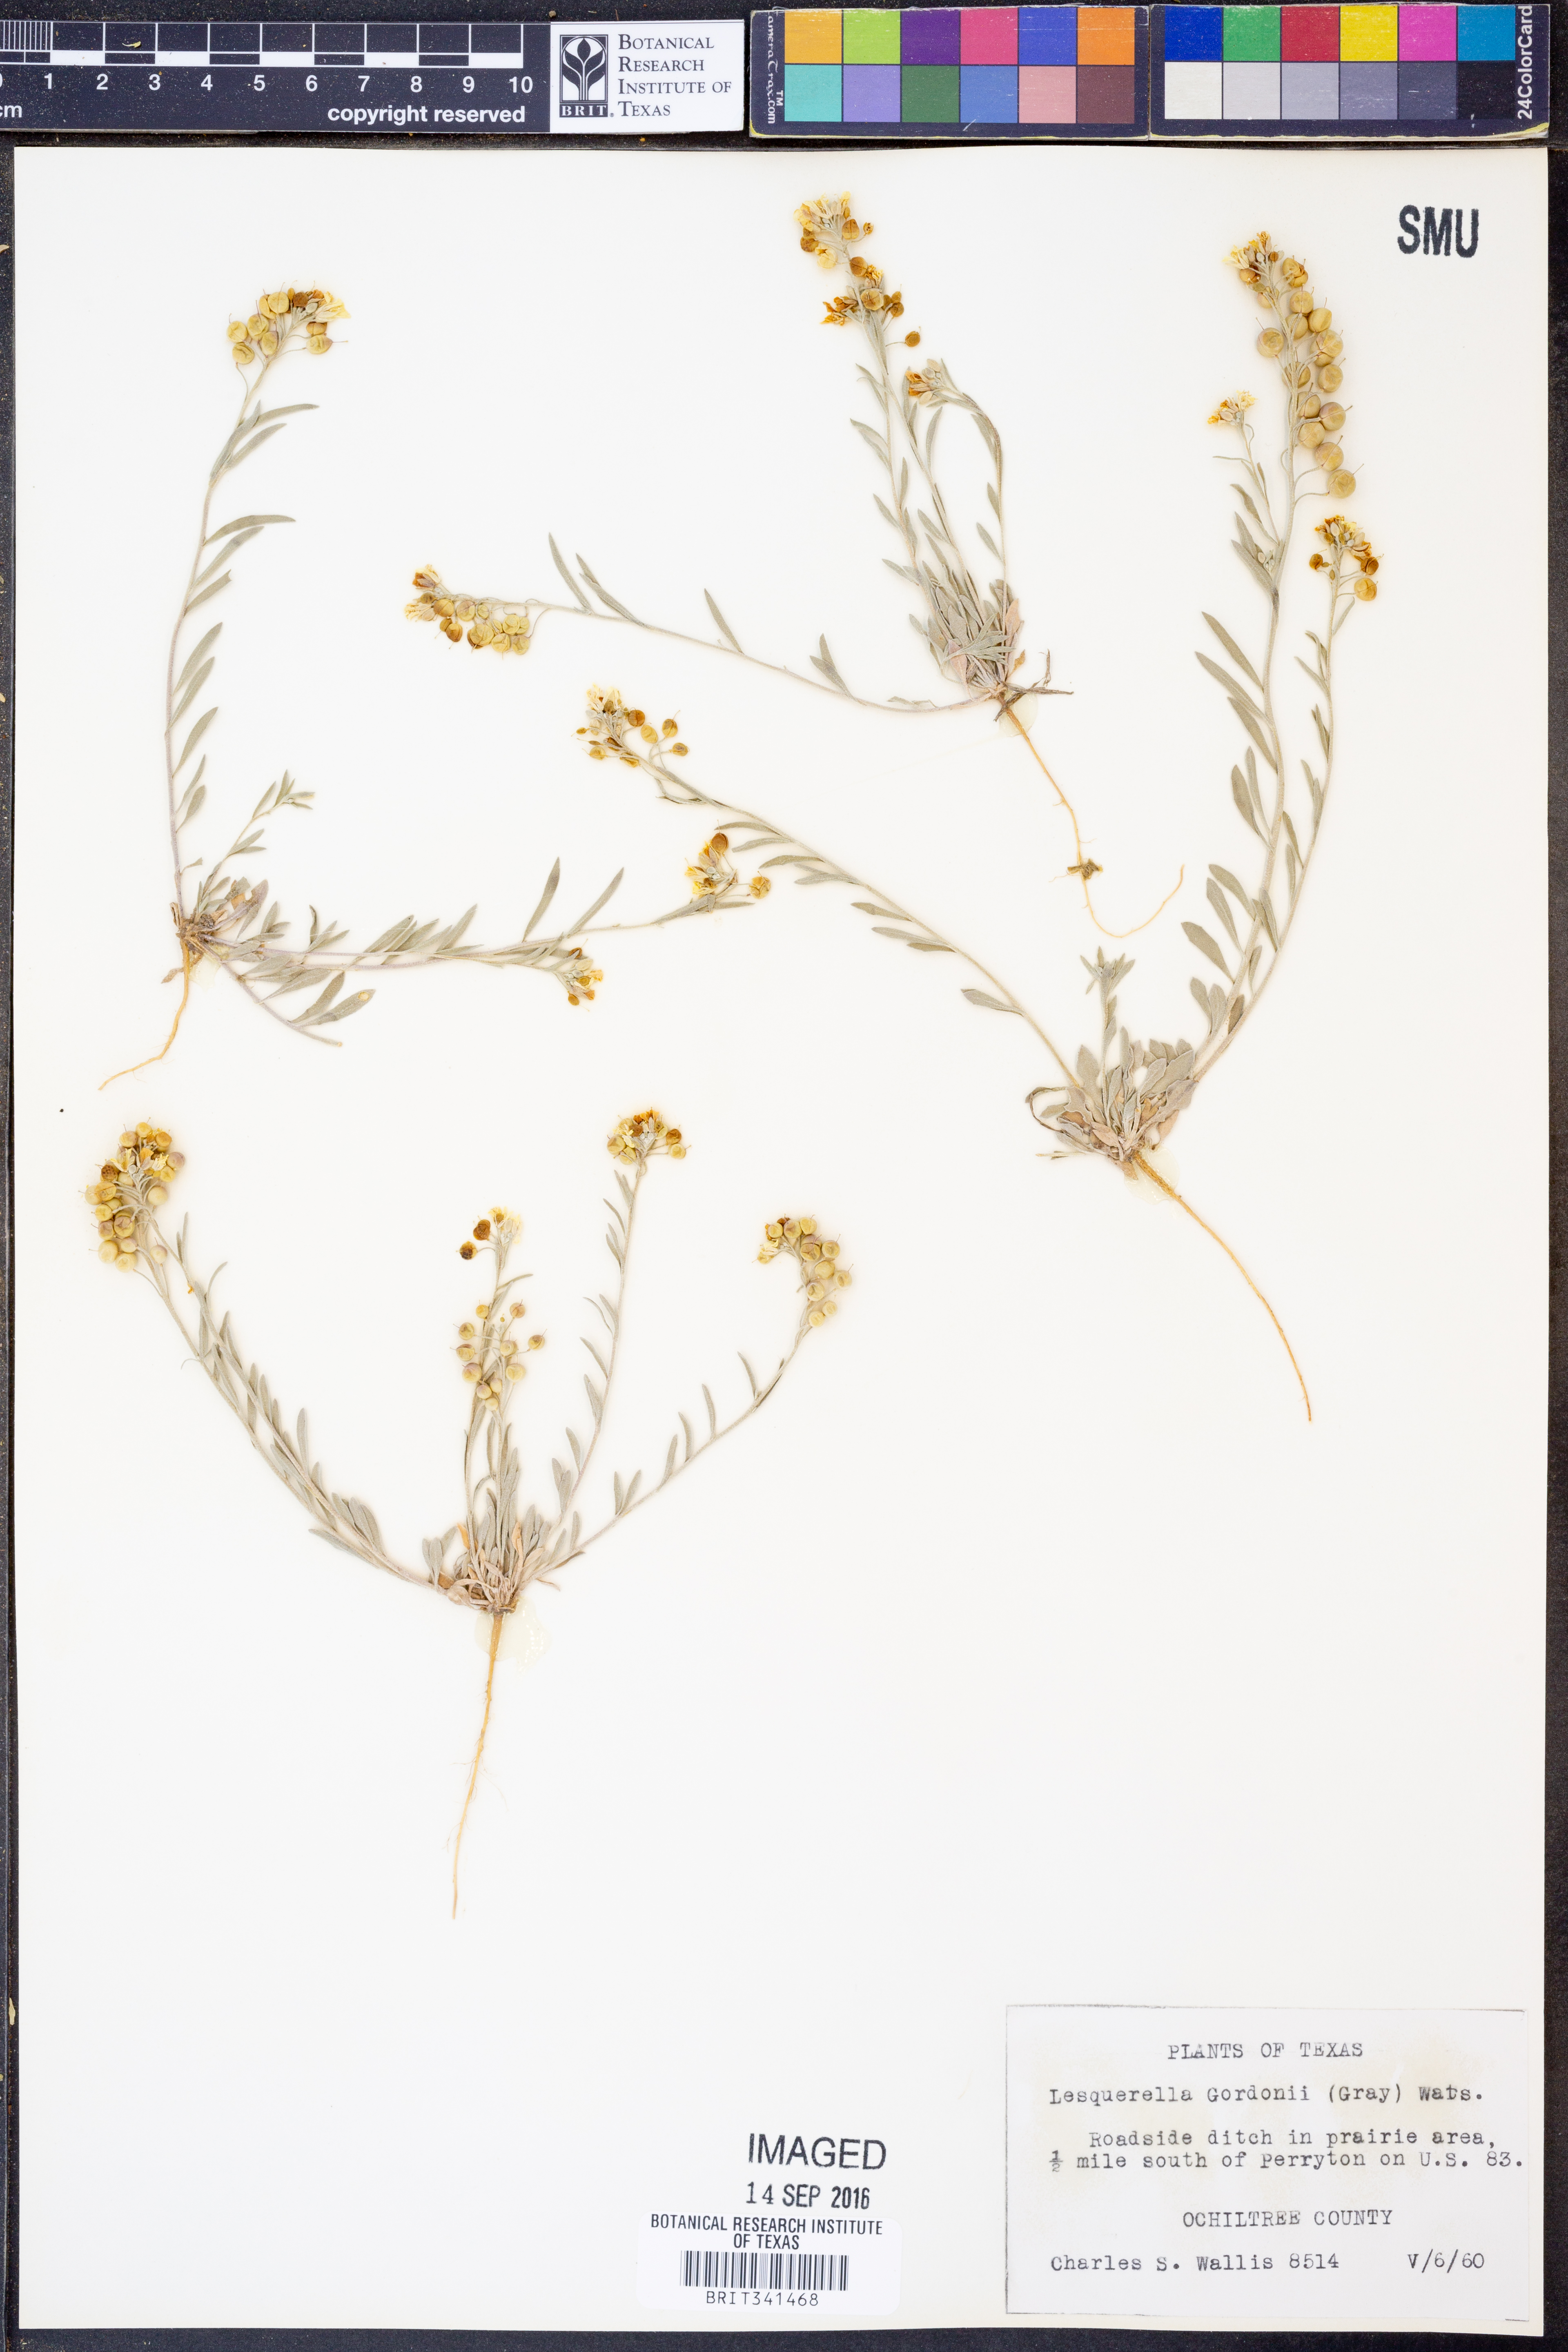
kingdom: Plantae
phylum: Tracheophyta
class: Magnoliopsida
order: Brassicales
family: Brassicaceae
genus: Physaria
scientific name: Physaria gordonii
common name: Gordon's bladderpod
